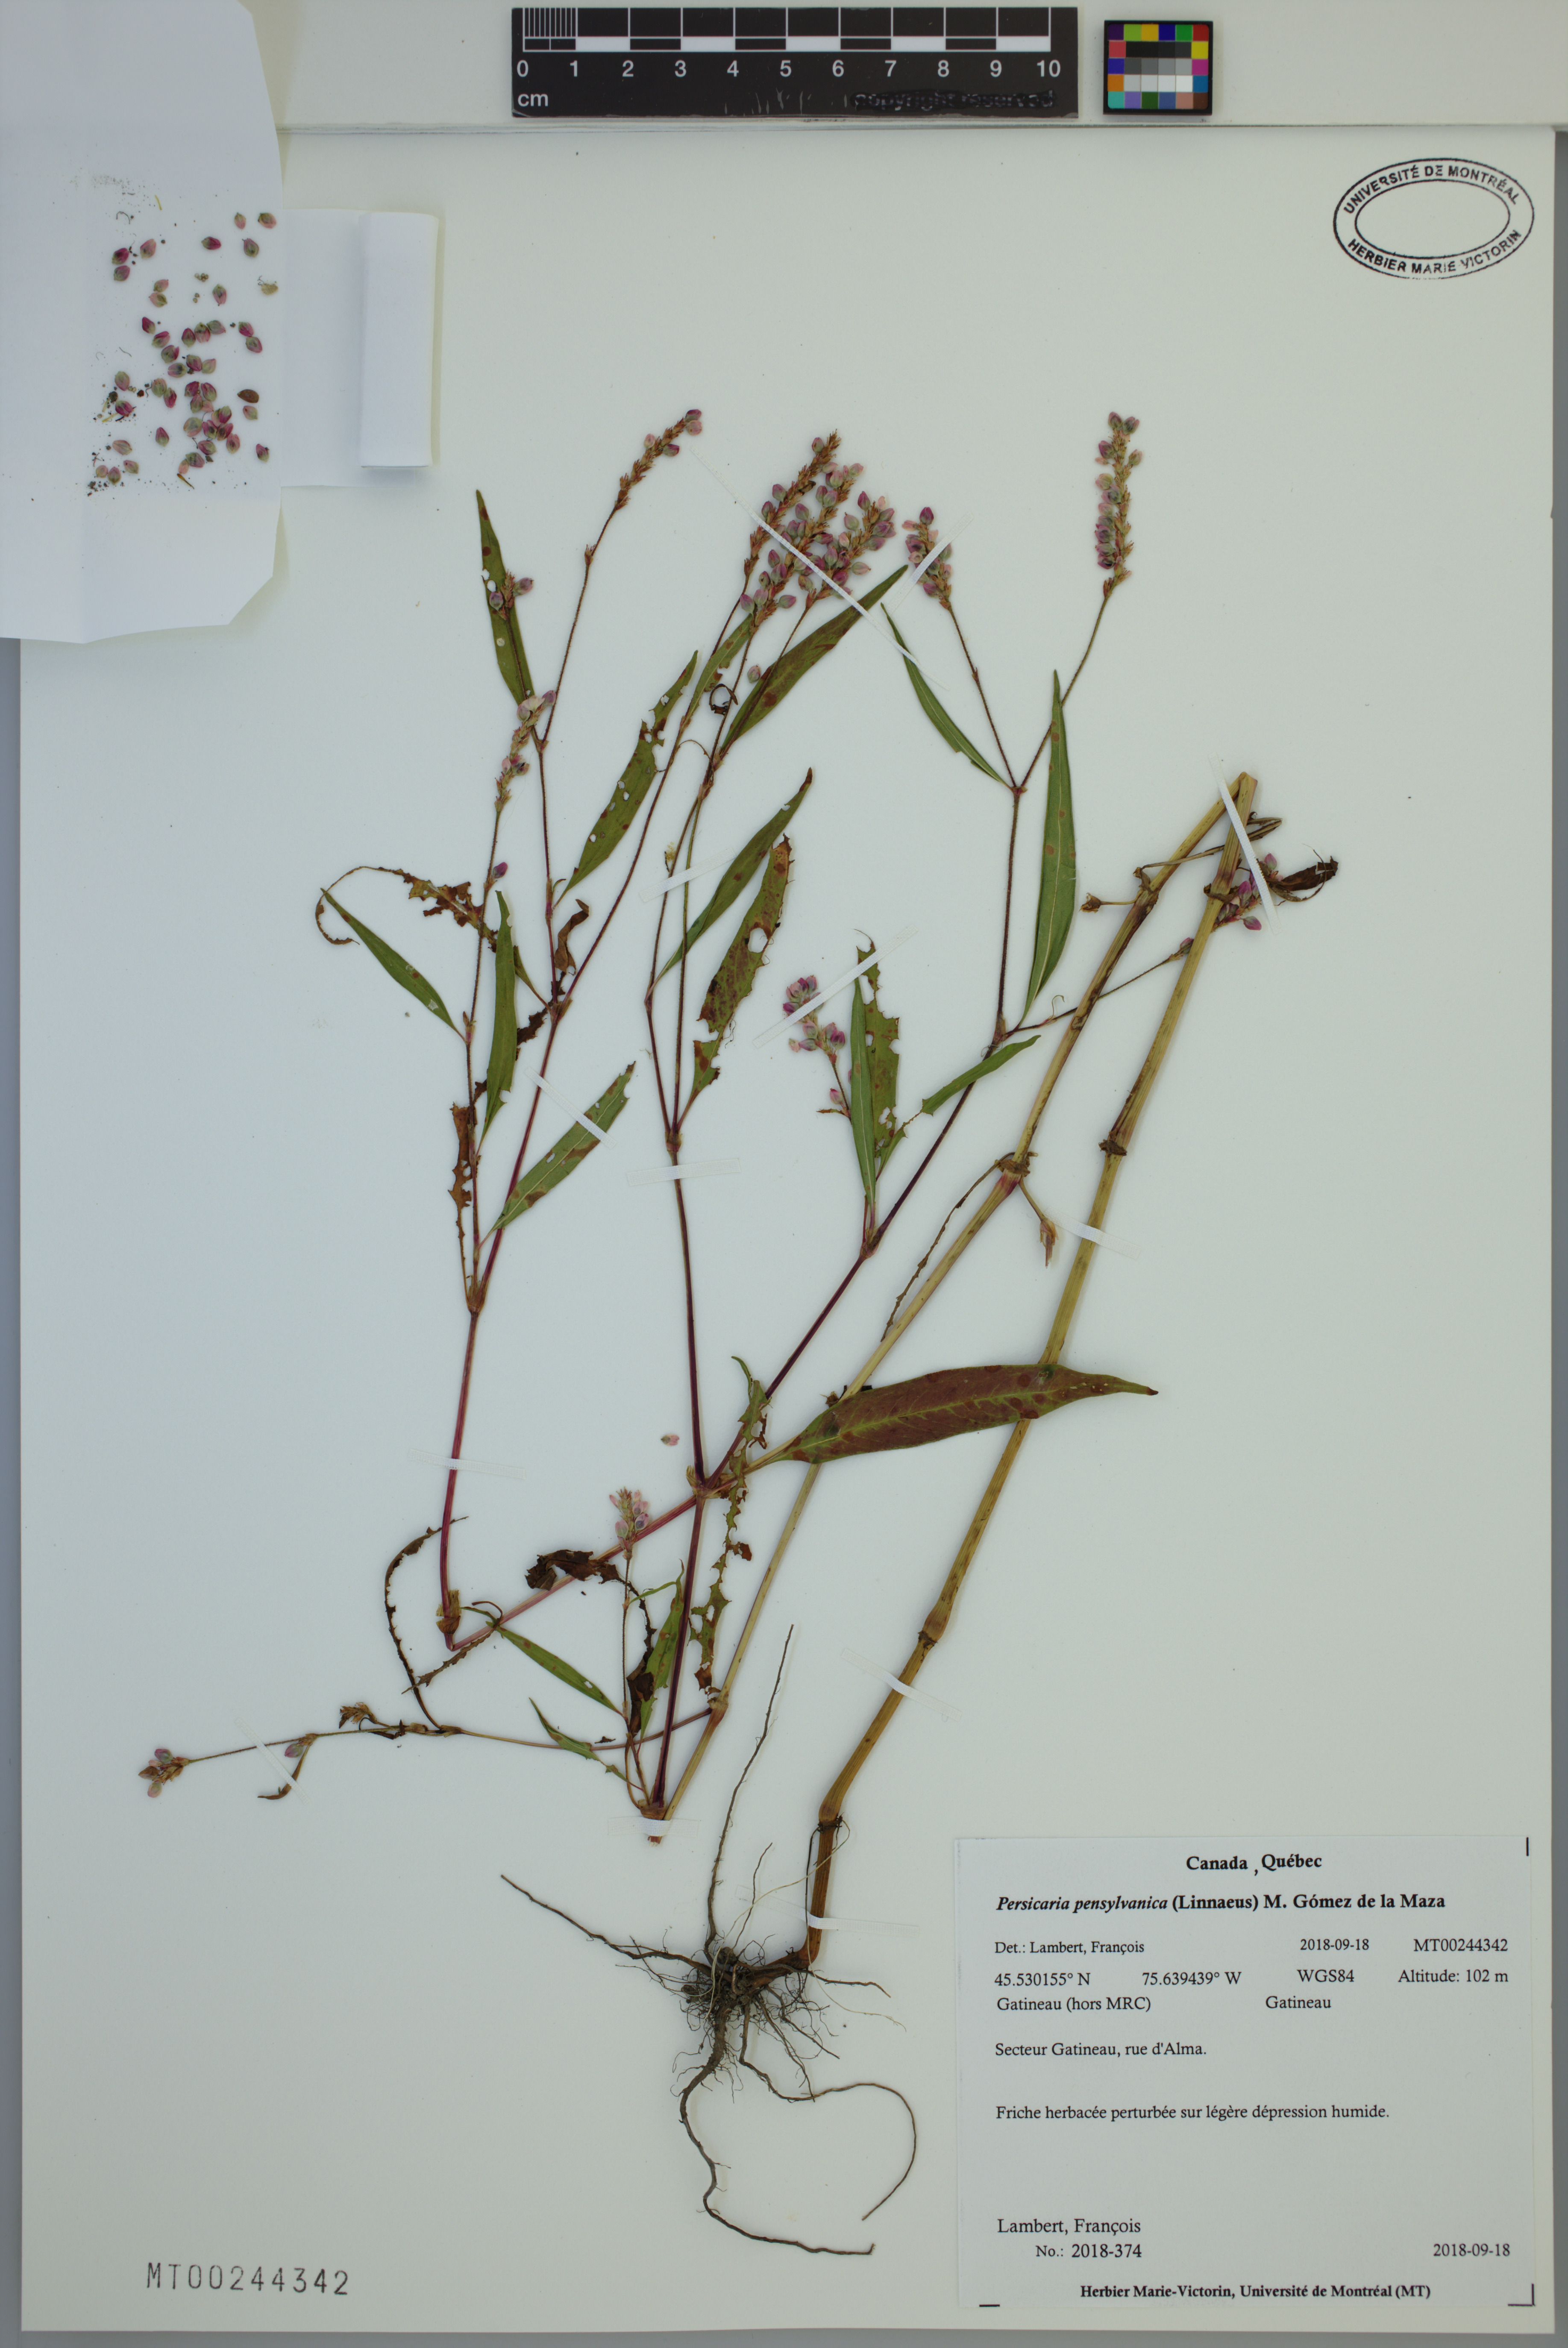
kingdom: Plantae
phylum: Tracheophyta
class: Magnoliopsida
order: Caryophyllales
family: Polygonaceae
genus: Persicaria
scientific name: Persicaria pensylvanica
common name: Pinkweed
